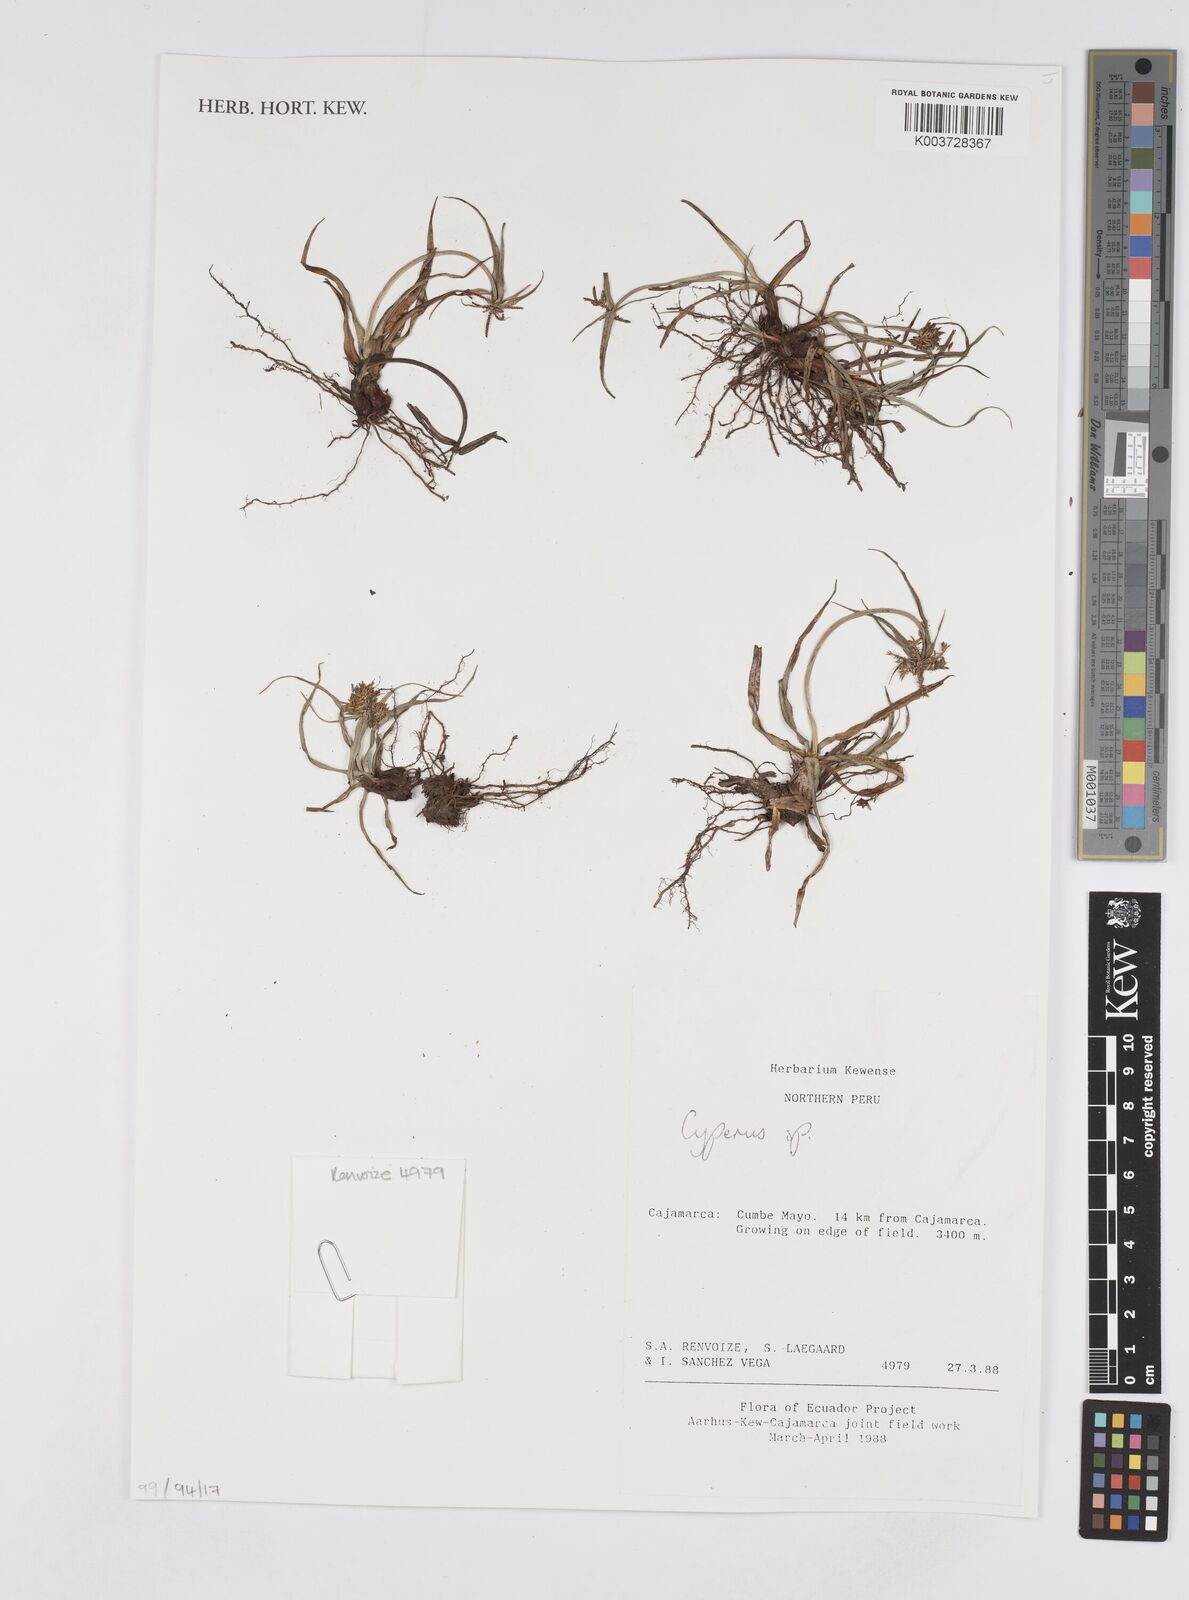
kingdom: Plantae
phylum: Tracheophyta
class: Liliopsida
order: Poales
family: Cyperaceae
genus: Cyperus
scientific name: Cyperus
